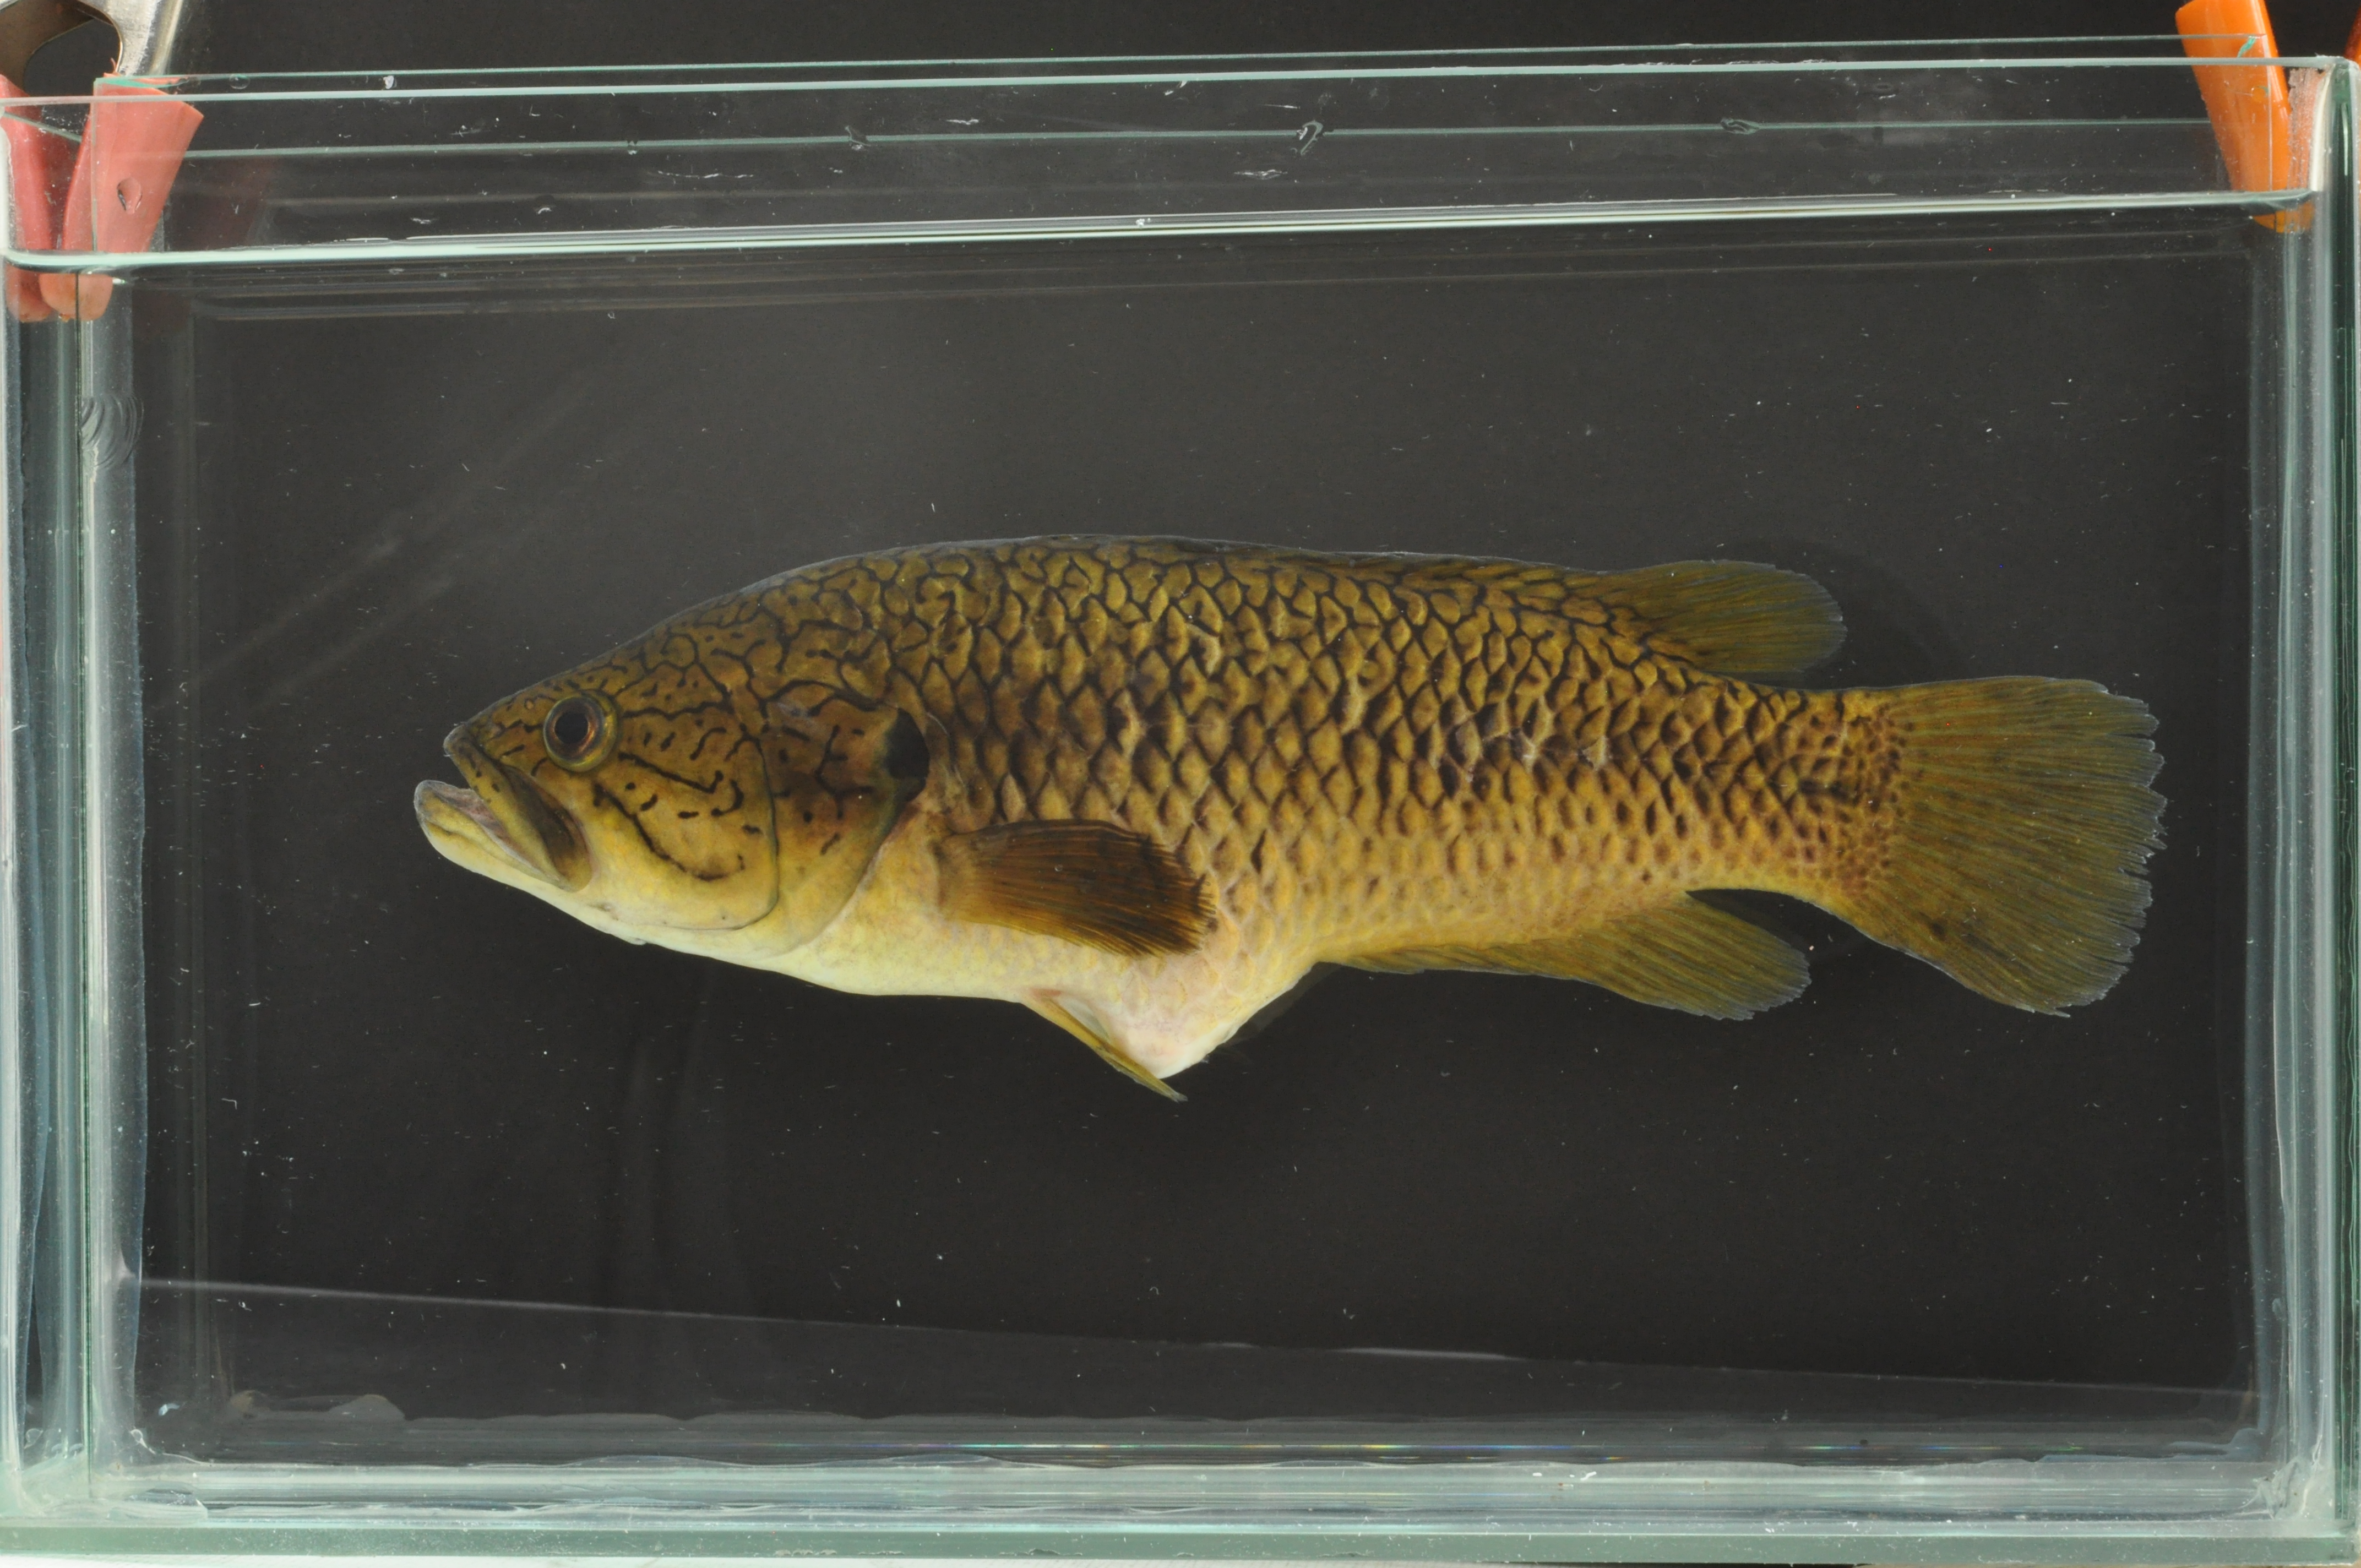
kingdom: Animalia
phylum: Chordata
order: Perciformes
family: Anabantidae
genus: Sandelia
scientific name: Sandelia capensis
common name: Cape kurper
